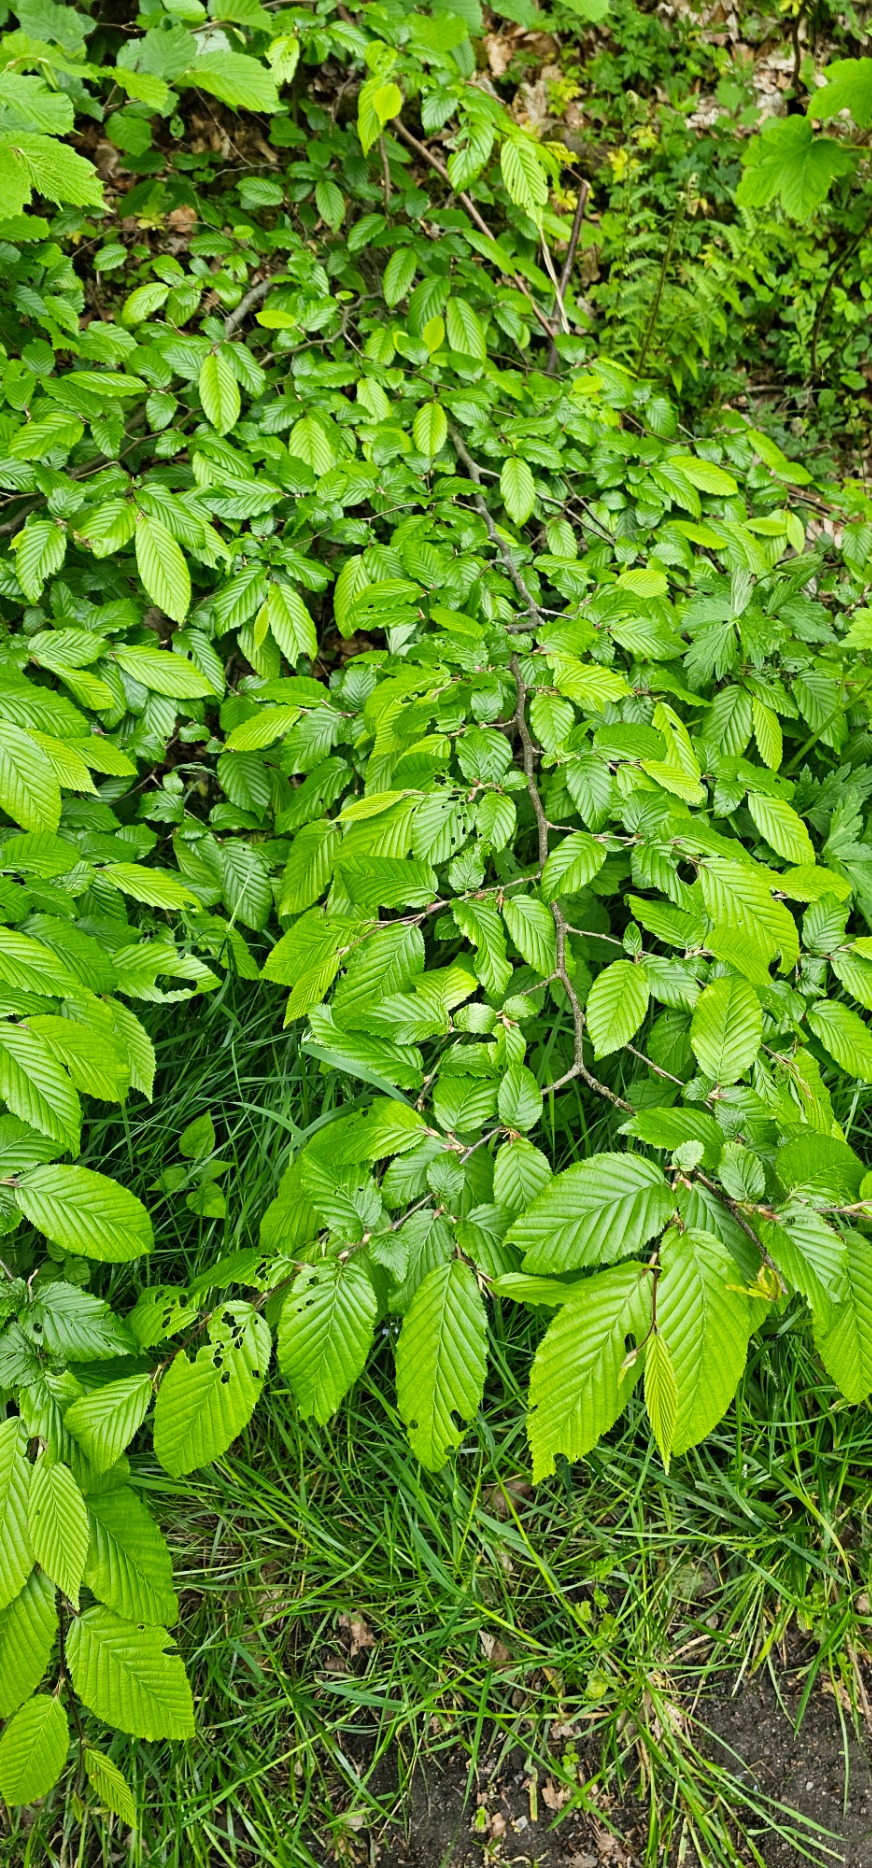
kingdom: Plantae
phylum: Tracheophyta
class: Magnoliopsida
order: Fagales
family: Betulaceae
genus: Carpinus
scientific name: Carpinus betulus
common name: Avnbøg
